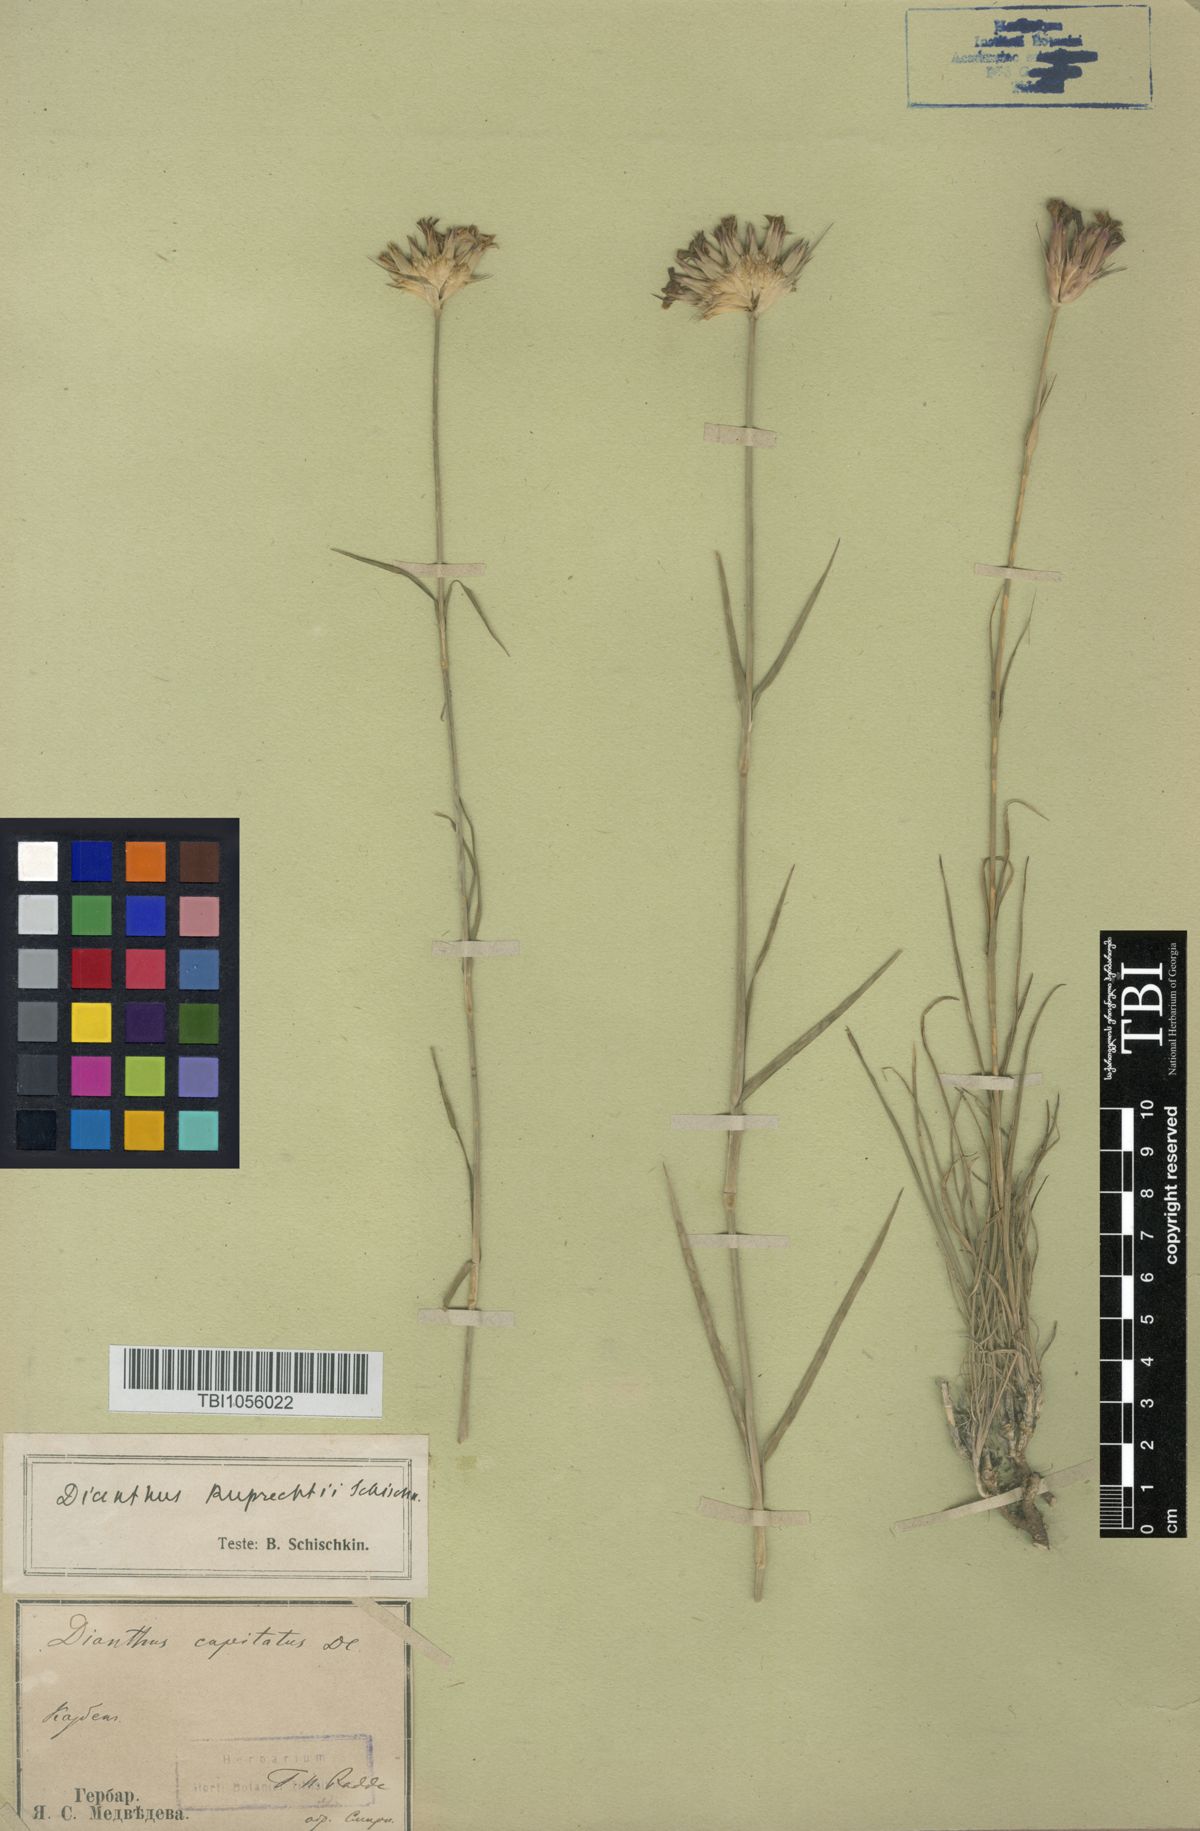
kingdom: Plantae
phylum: Tracheophyta
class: Magnoliopsida
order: Caryophyllales
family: Caryophyllaceae
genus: Dianthus
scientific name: Dianthus ruprechtii
